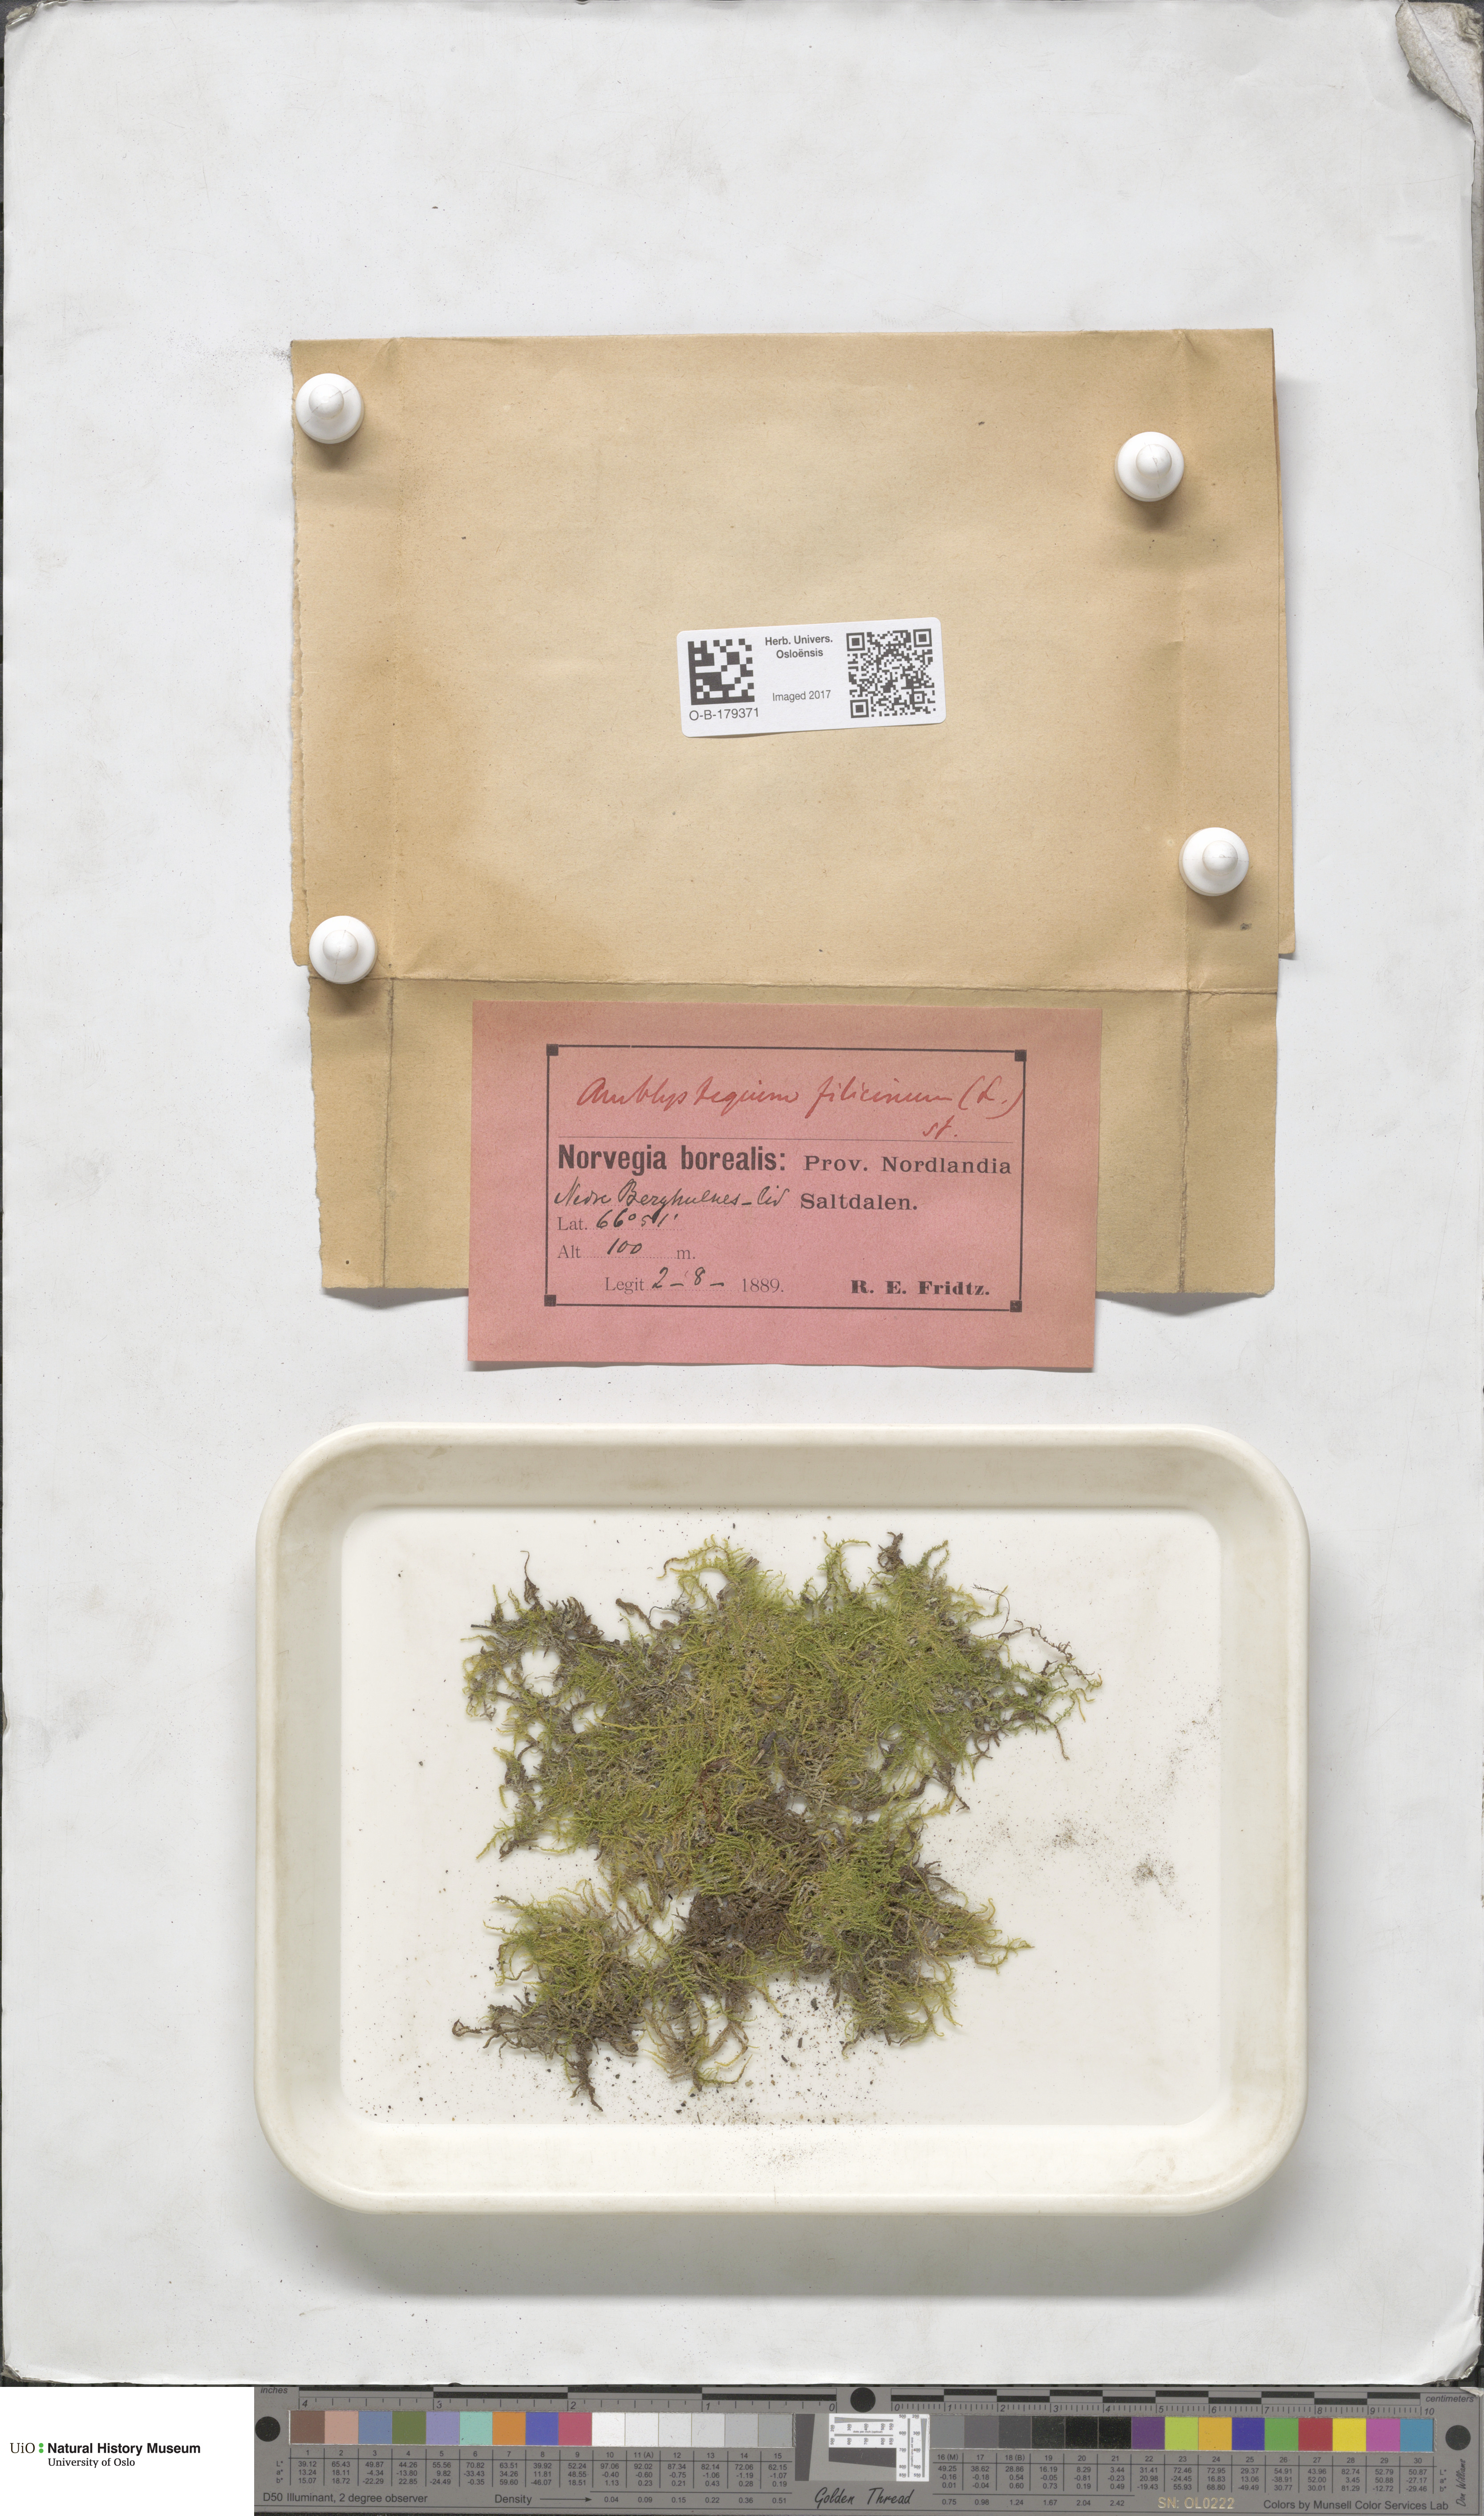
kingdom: Plantae
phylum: Bryophyta
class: Bryopsida
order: Hypnales
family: Amblystegiaceae
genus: Cratoneuron
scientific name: Cratoneuron filicinum
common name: Fern-leaved hook moss
